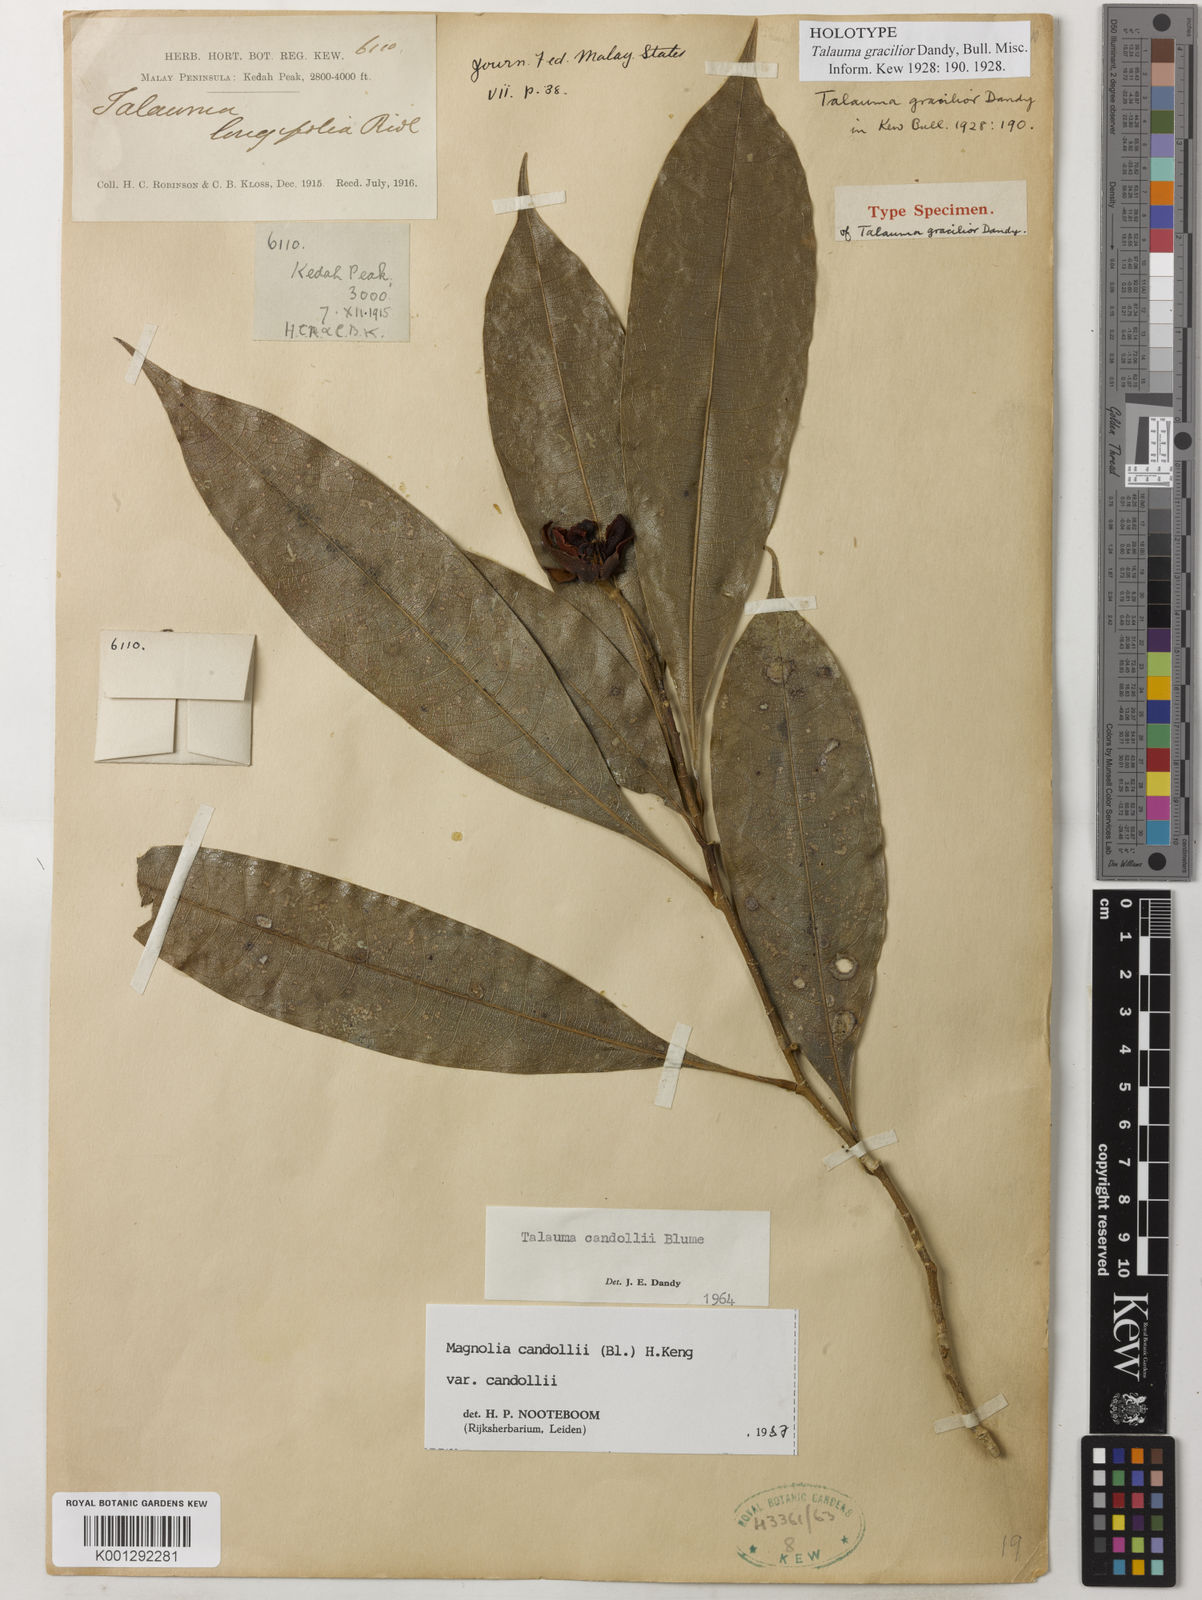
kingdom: Plantae
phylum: Tracheophyta
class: Magnoliopsida
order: Magnoliales
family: Magnoliaceae
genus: Magnolia
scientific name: Magnolia liliifera
